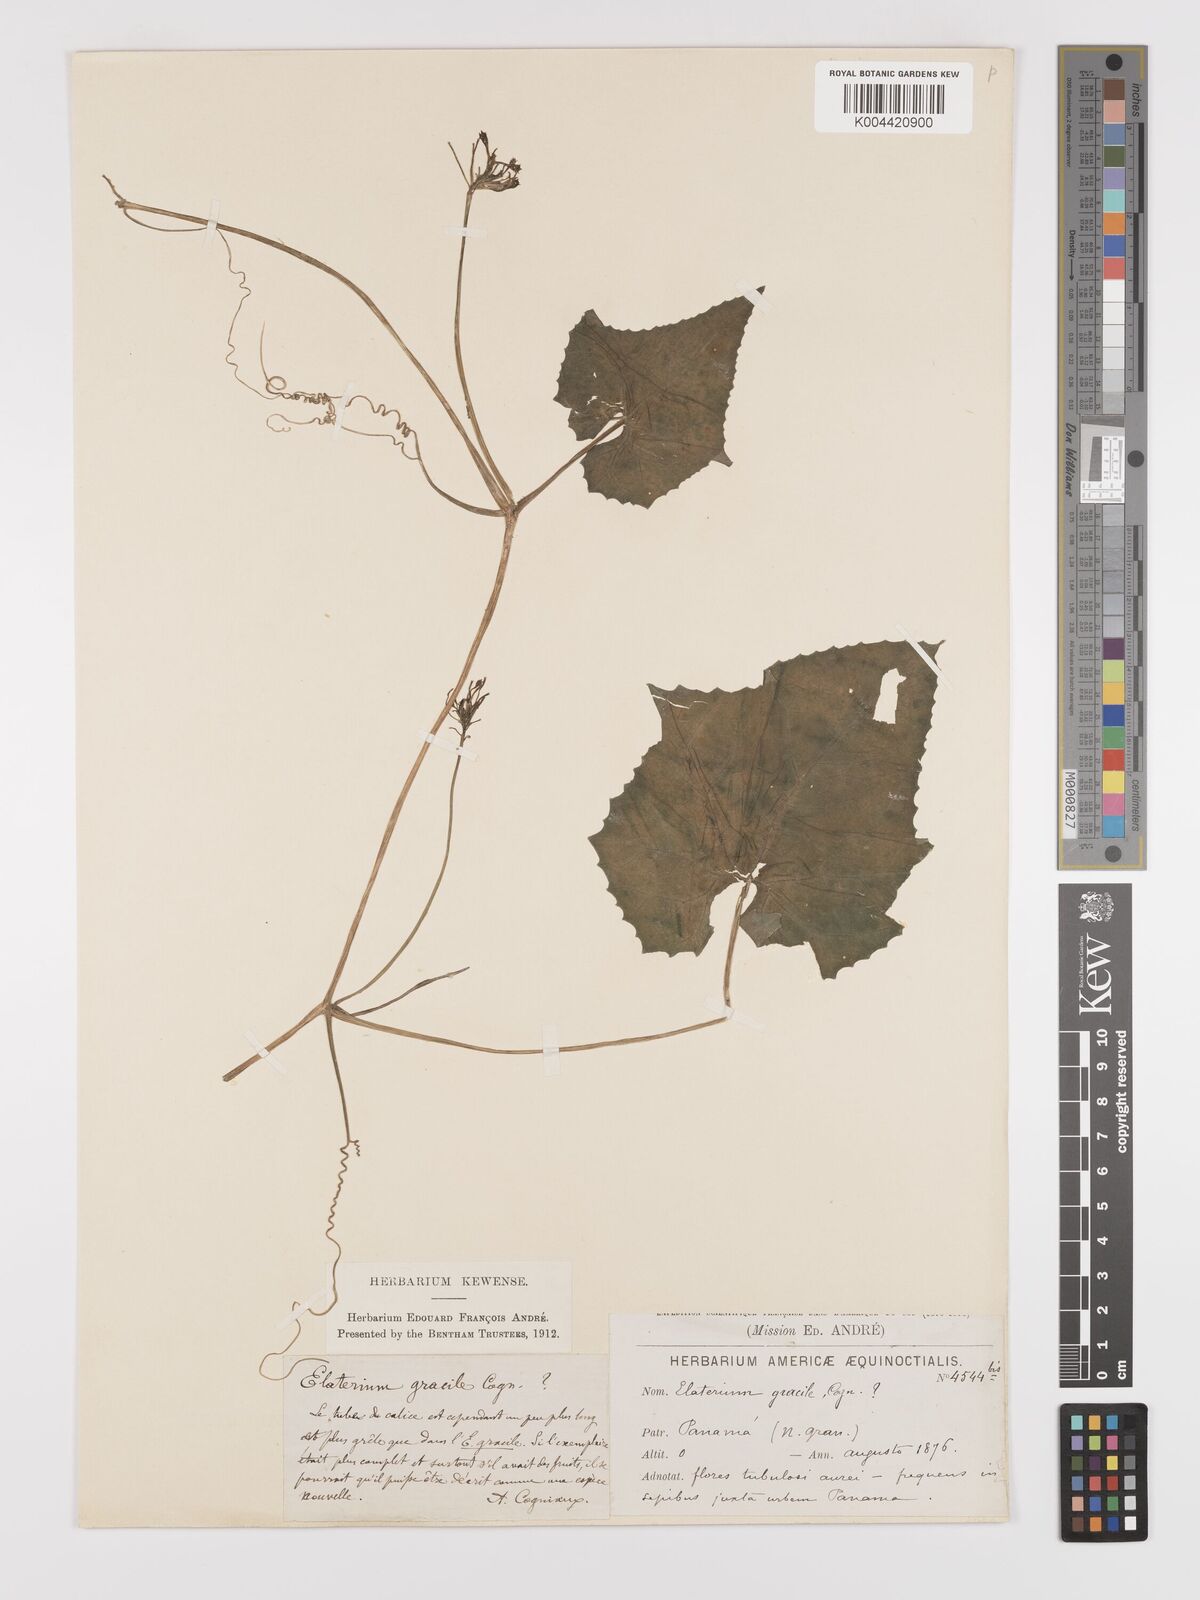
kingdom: Plantae
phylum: Tracheophyta
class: Magnoliopsida
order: Cucurbitales
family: Cucurbitaceae
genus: Cyclanthera
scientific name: Cyclanthera filiformis
